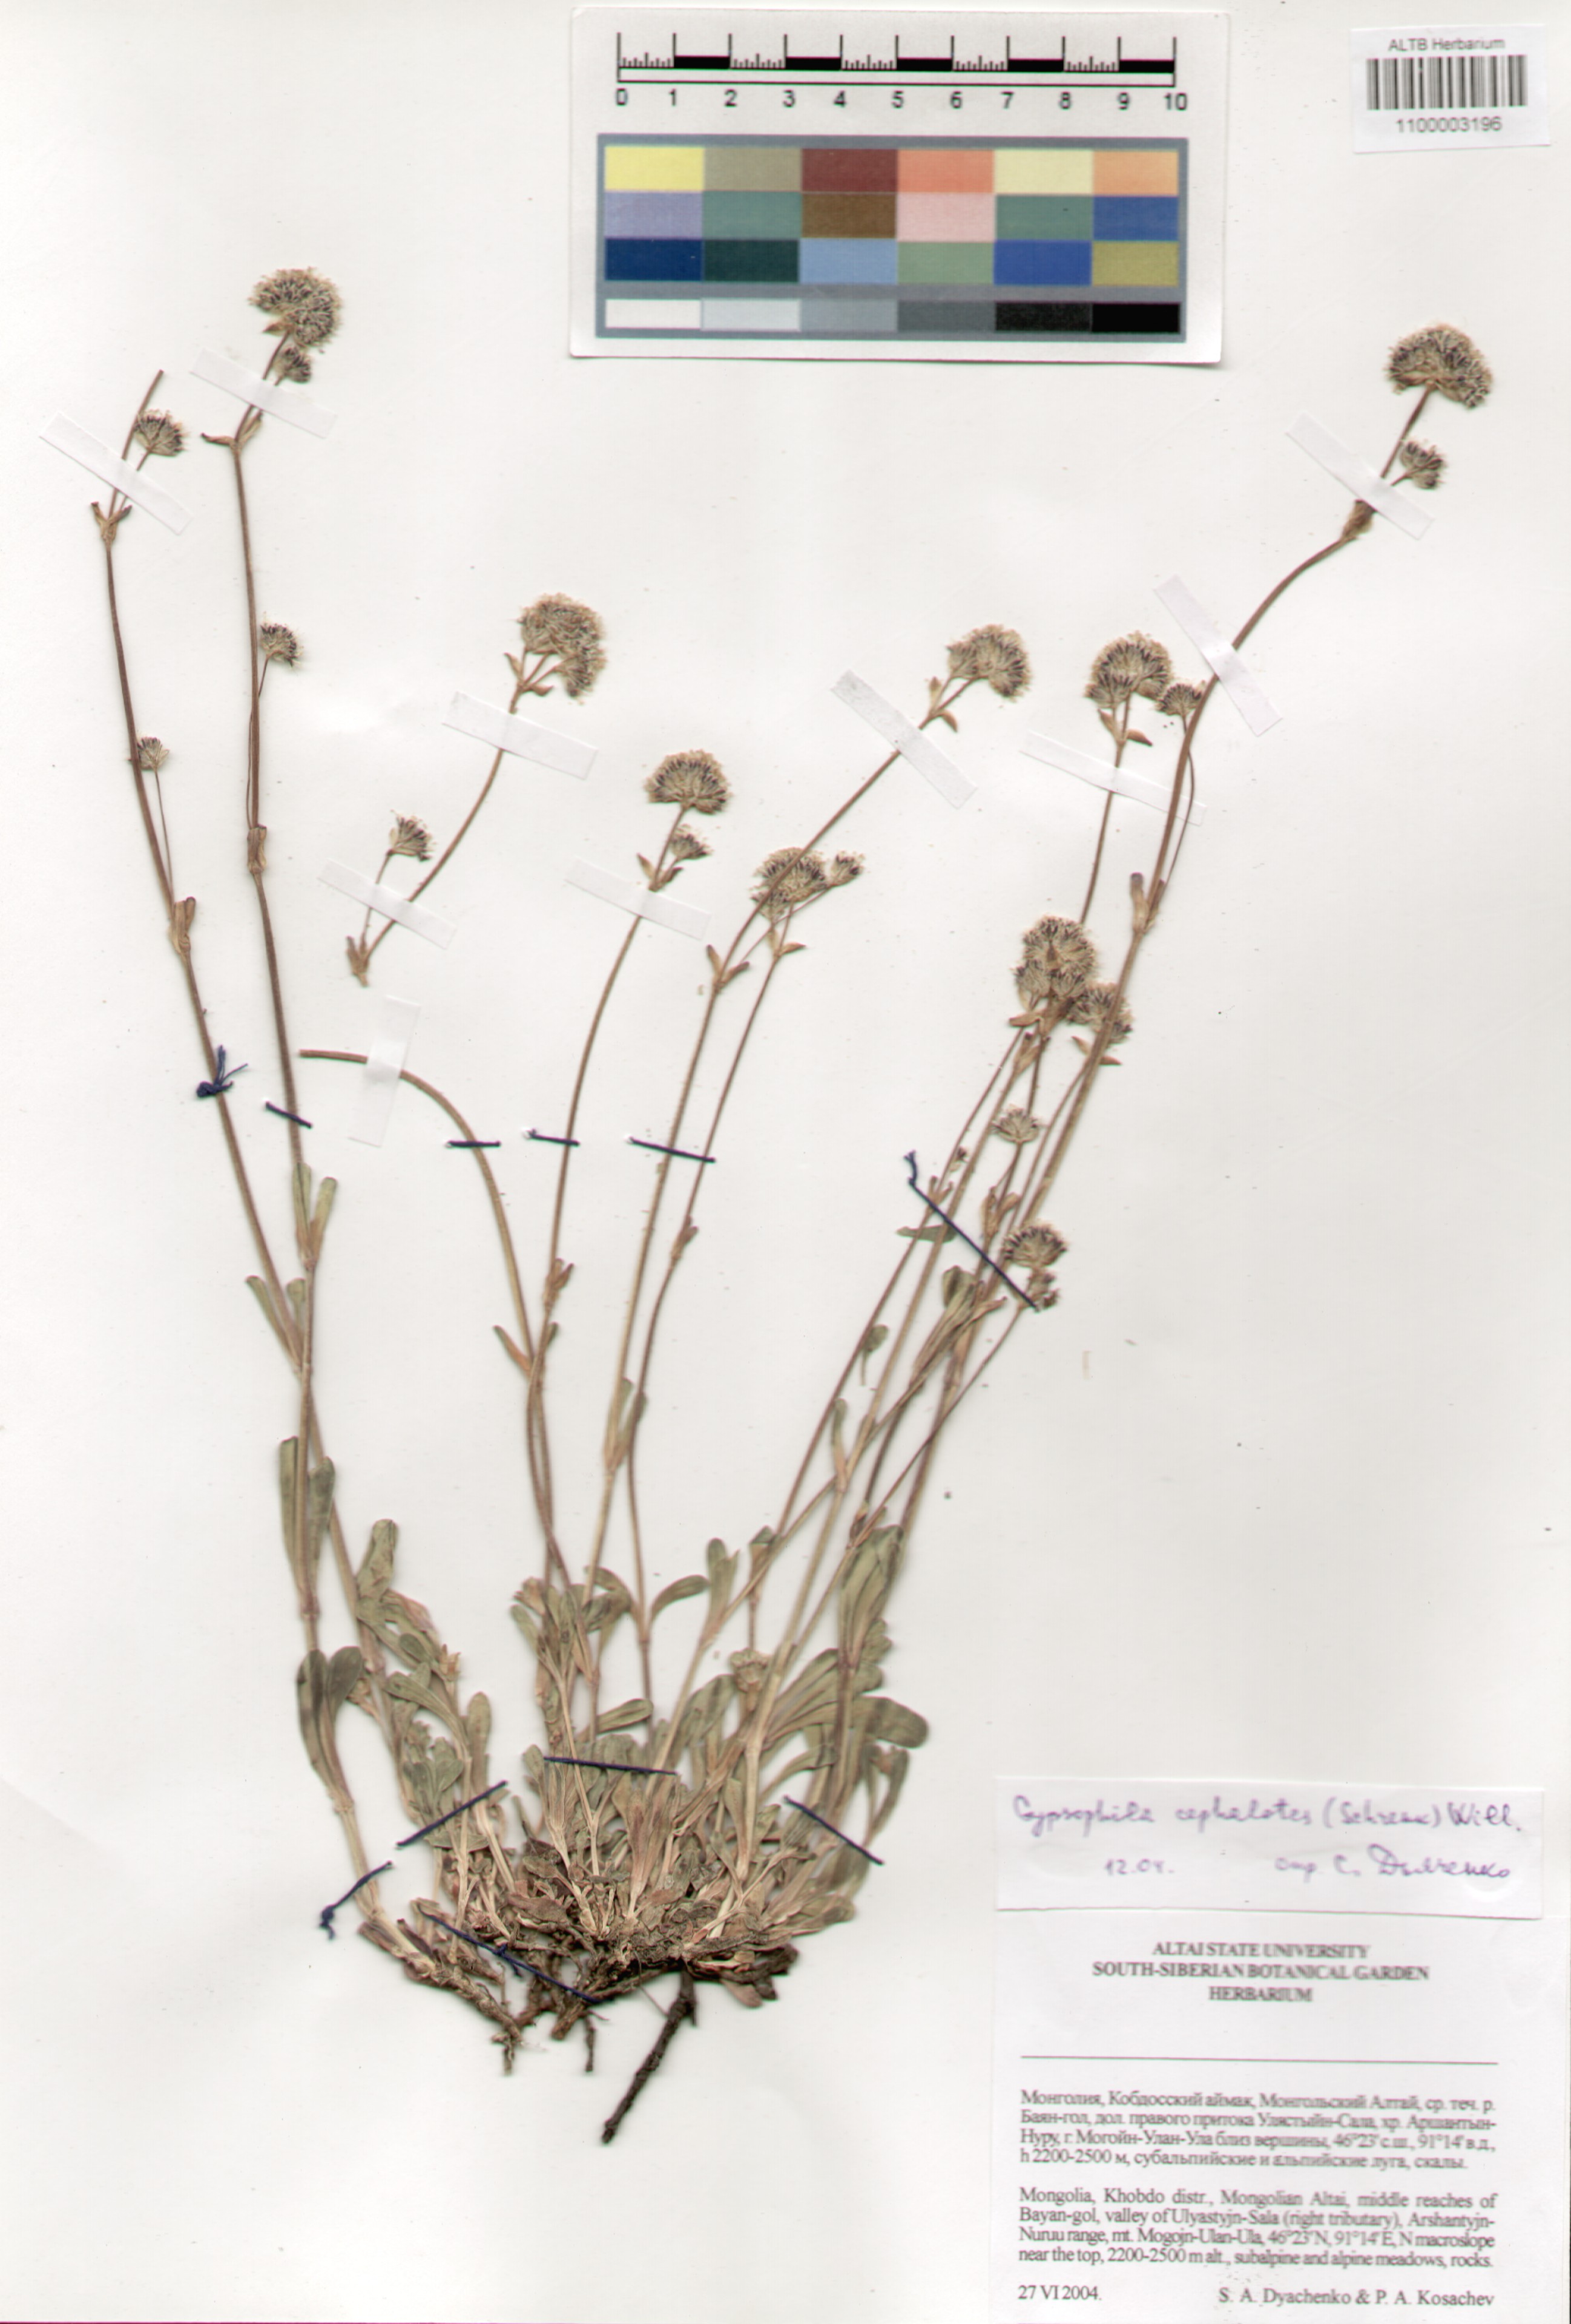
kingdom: Plantae
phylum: Tracheophyta
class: Magnoliopsida
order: Caryophyllales
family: Caryophyllaceae
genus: Gypsophila
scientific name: Gypsophila cephalotes
